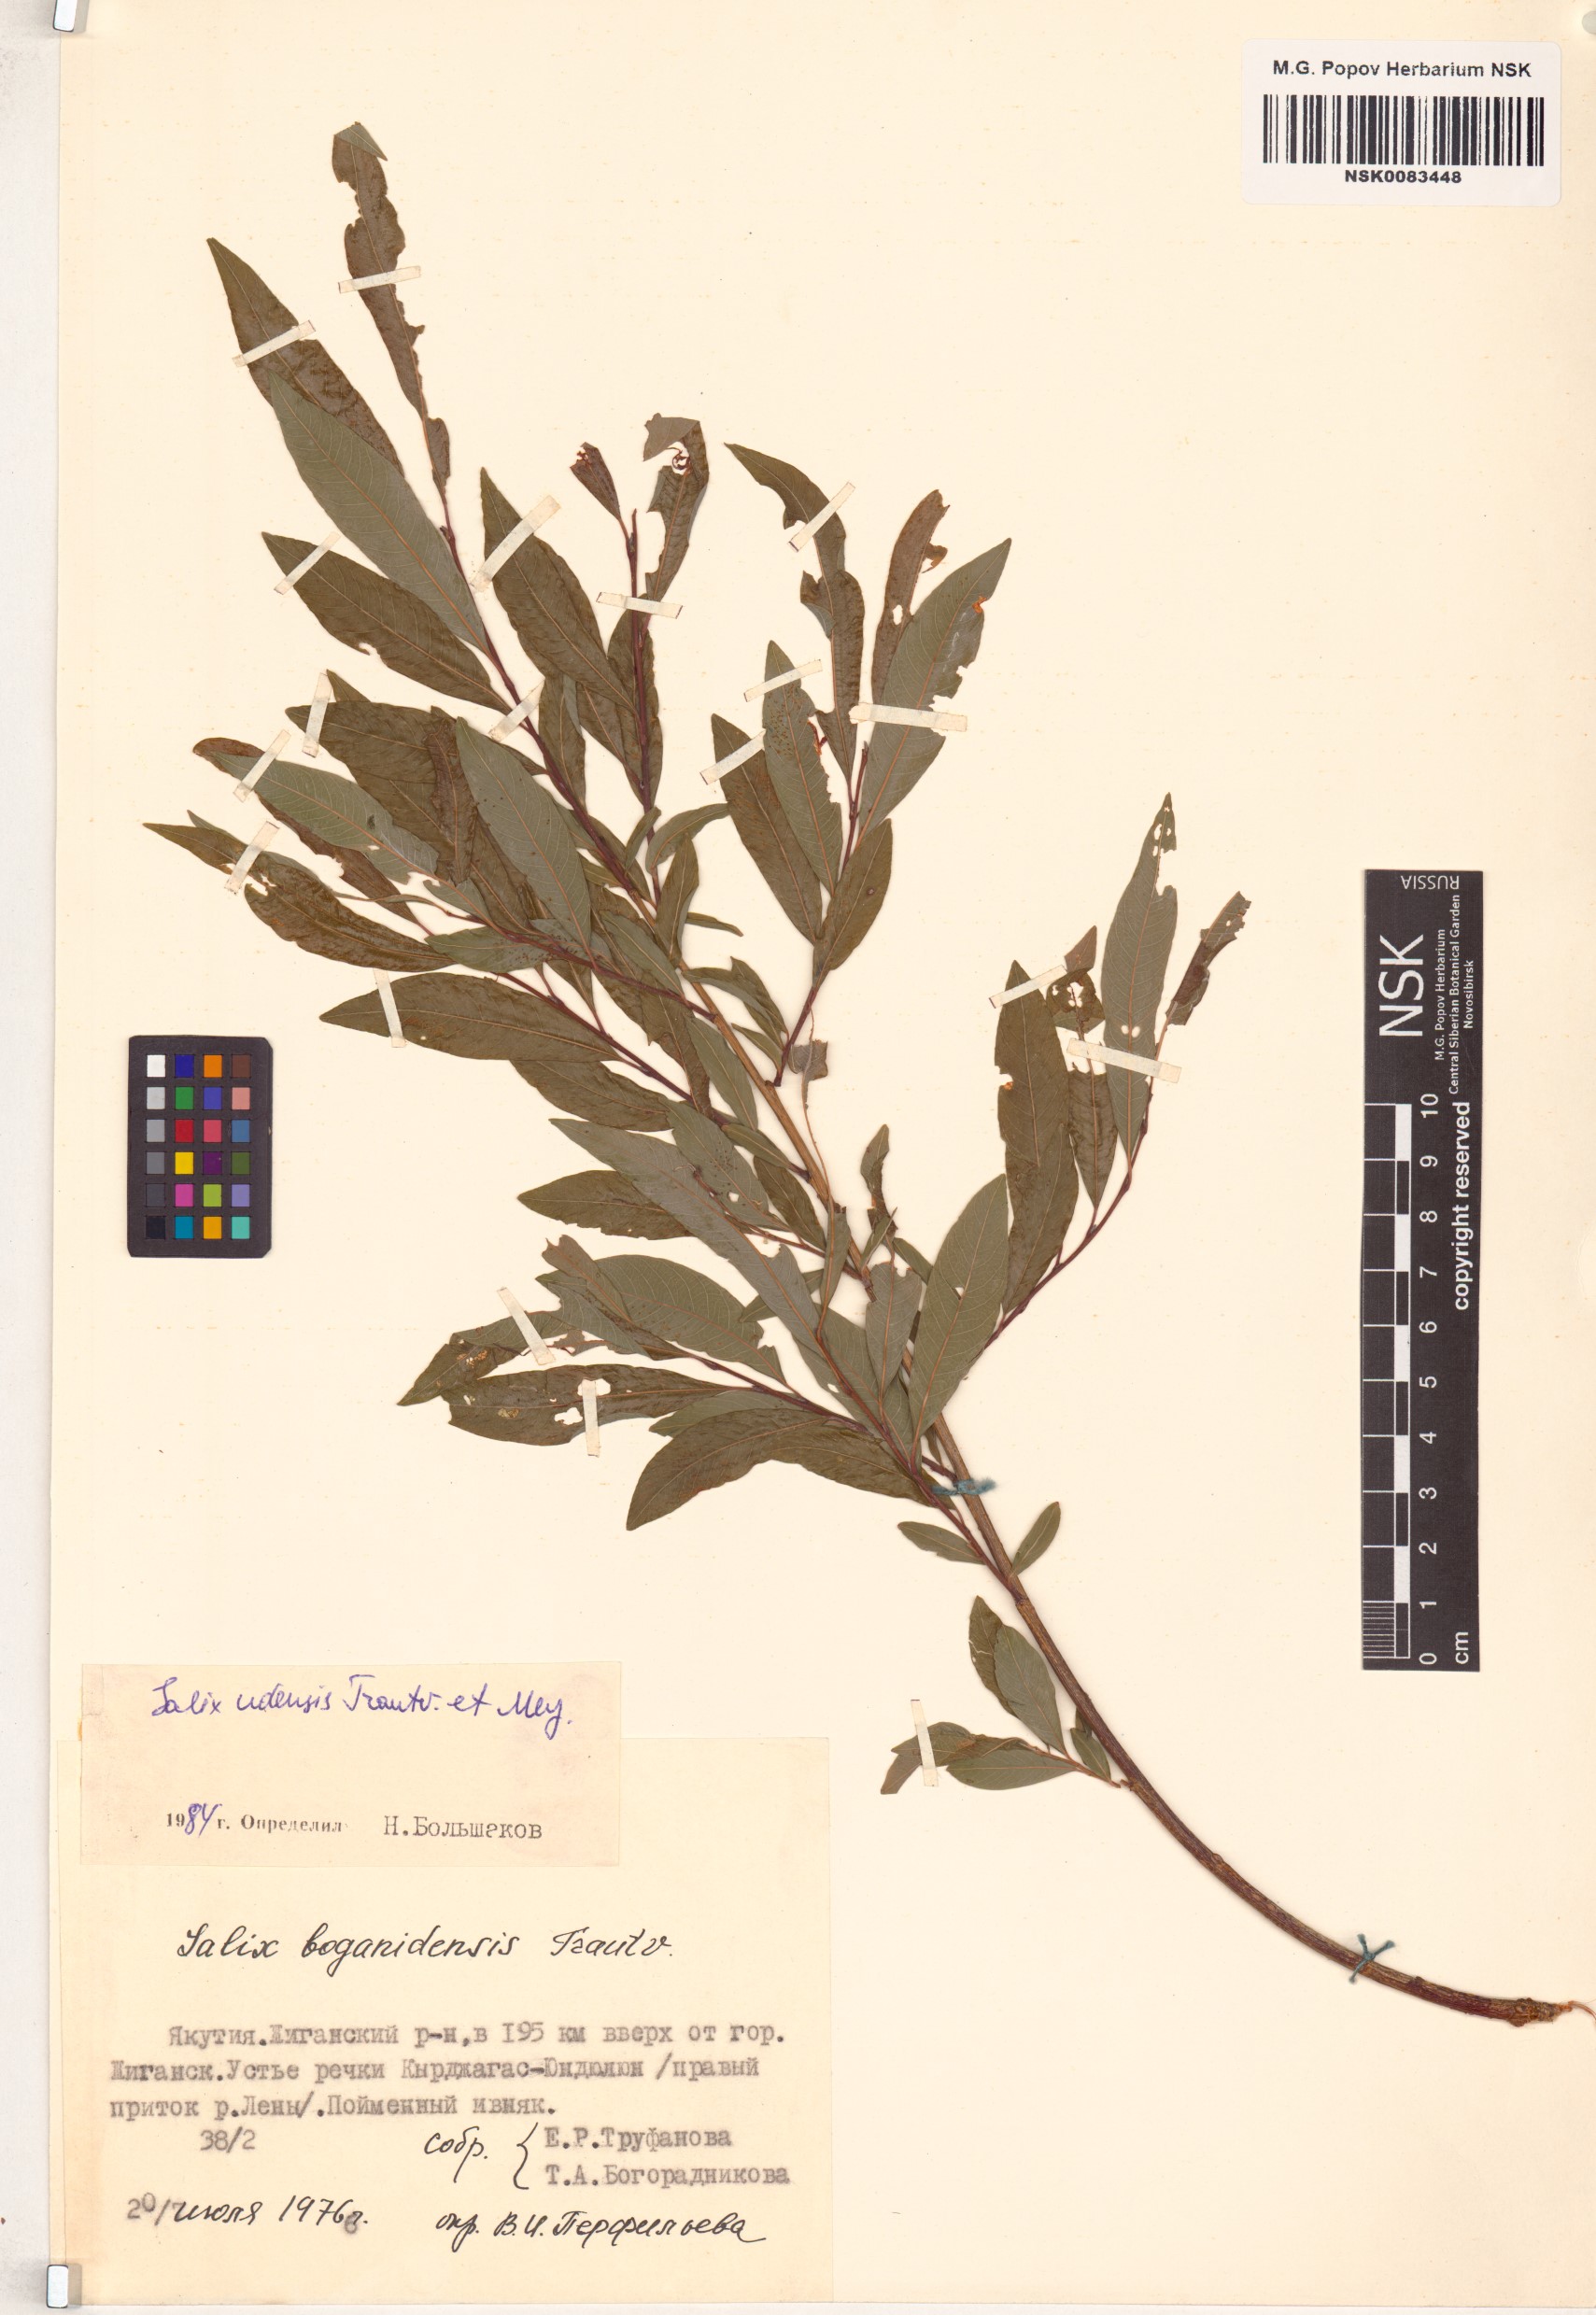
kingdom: Plantae
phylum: Tracheophyta
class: Magnoliopsida
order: Malpighiales
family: Salicaceae
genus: Salix
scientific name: Salix udensis
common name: Sachalin willow
